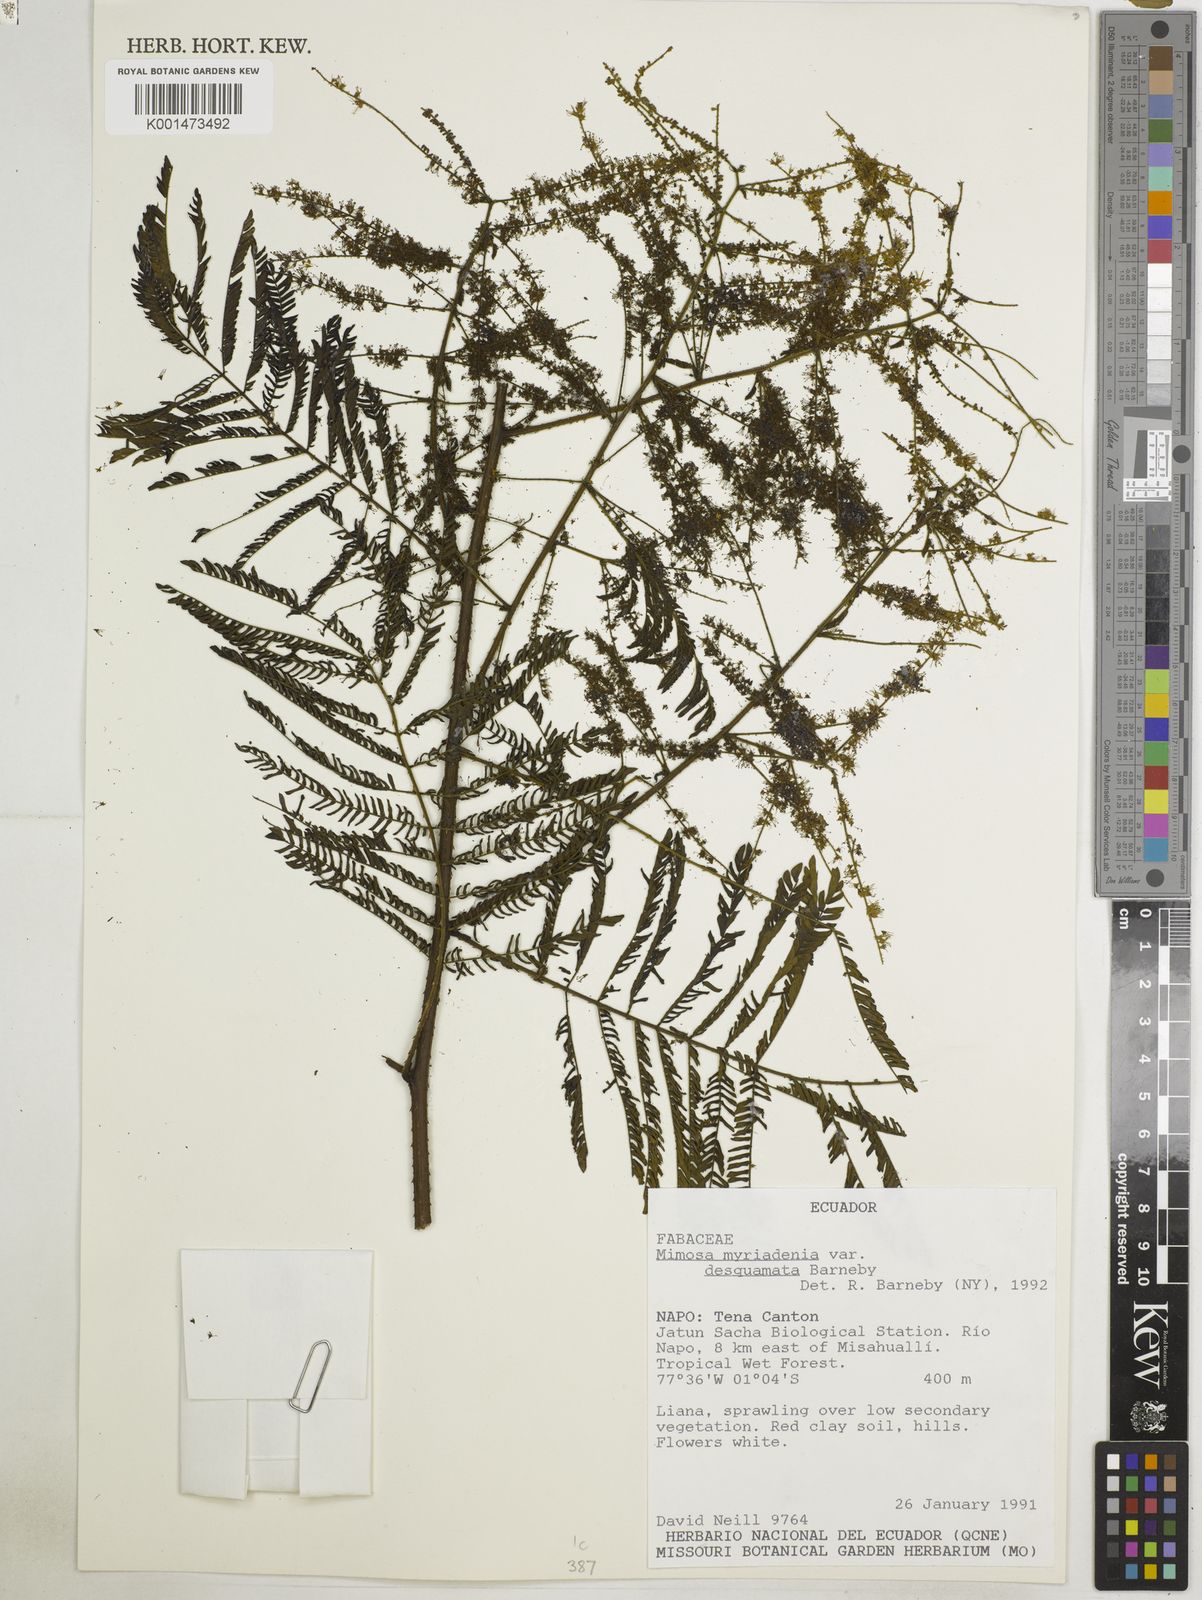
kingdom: Plantae
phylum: Tracheophyta
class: Magnoliopsida
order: Fabales
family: Fabaceae
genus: Mimosa
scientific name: Mimosa myriadenia
